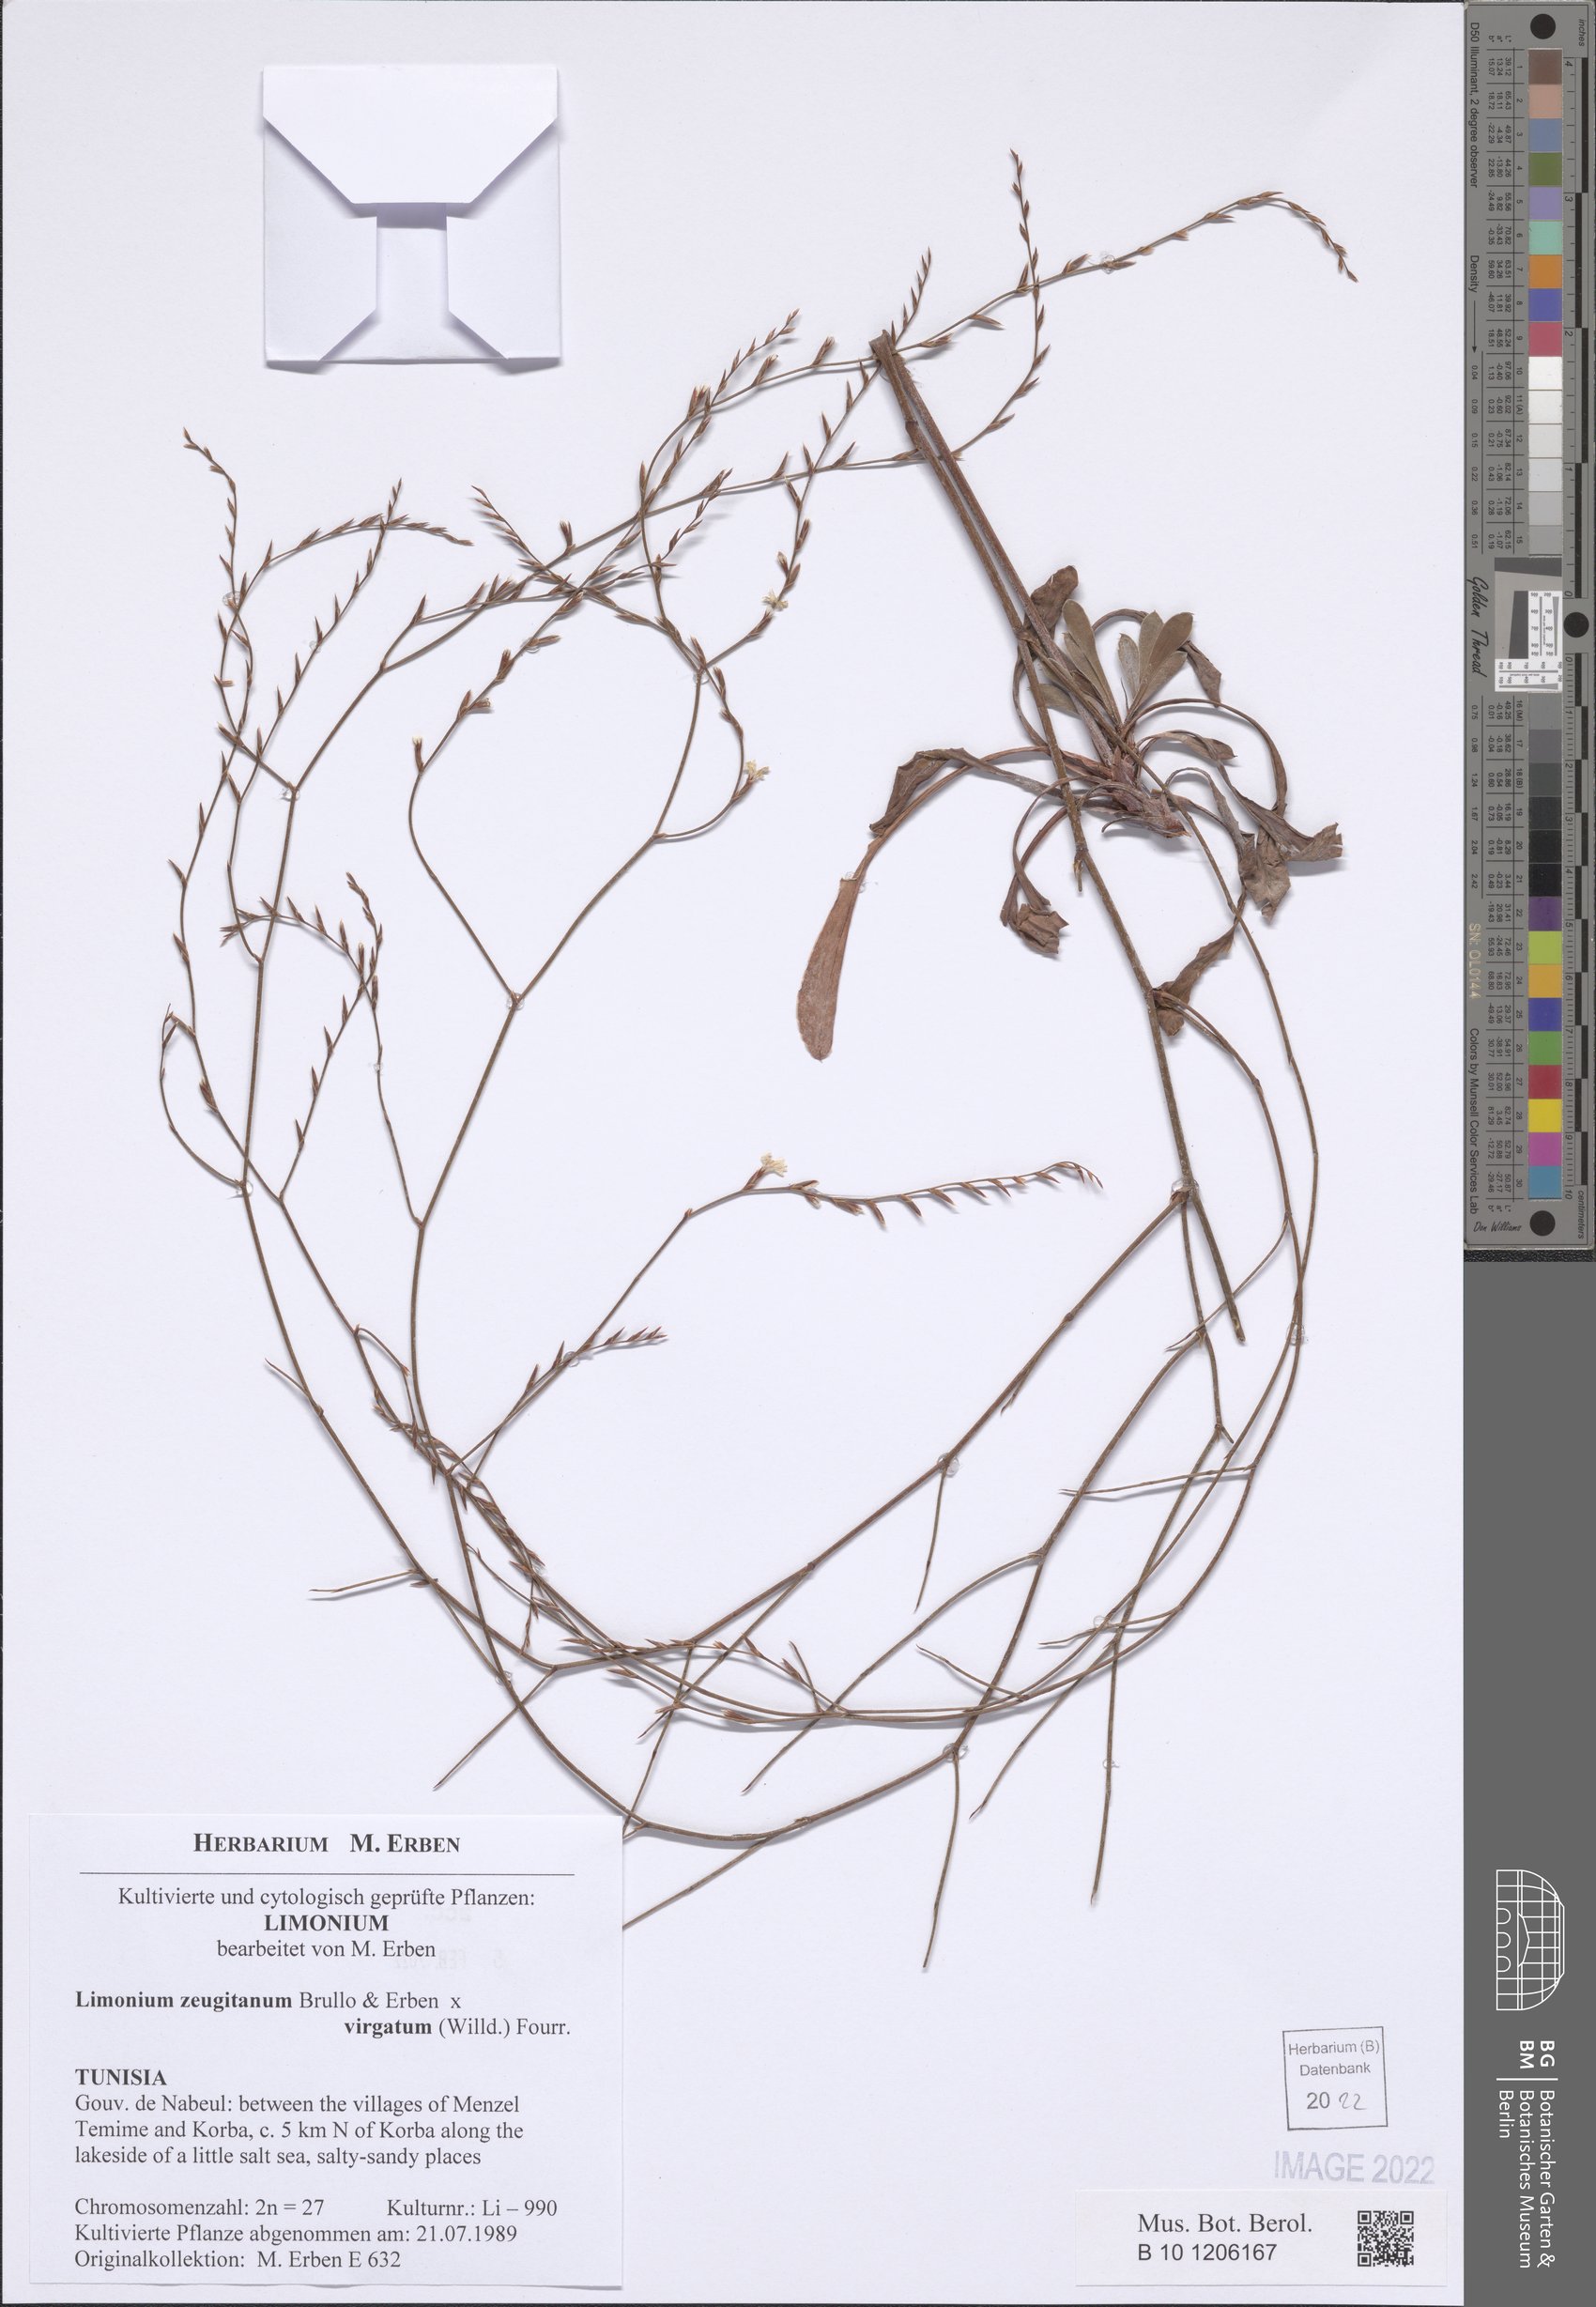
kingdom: Plantae
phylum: Tracheophyta
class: Magnoliopsida
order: Caryophyllales
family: Plumbaginaceae
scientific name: Plumbaginaceae
